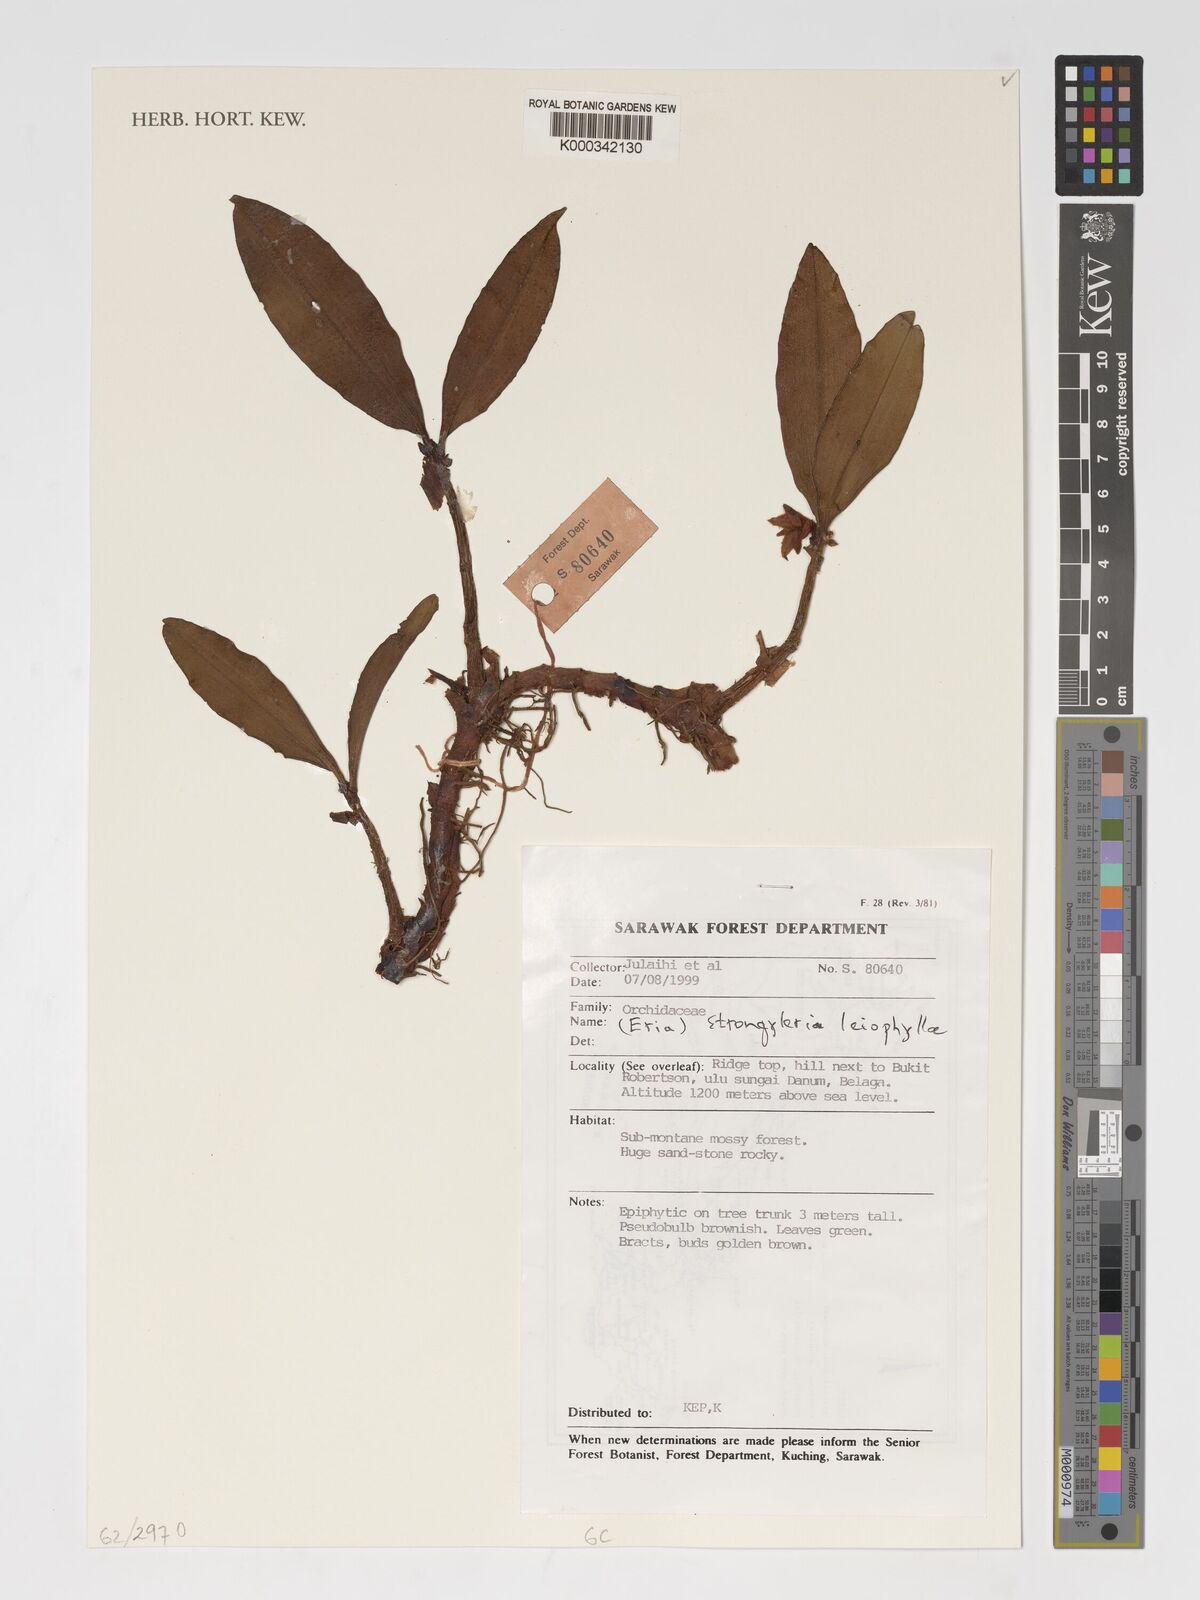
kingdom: Plantae
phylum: Tracheophyta
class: Liliopsida
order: Asparagales
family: Orchidaceae
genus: Strongyleria
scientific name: Strongyleria leiophylla
